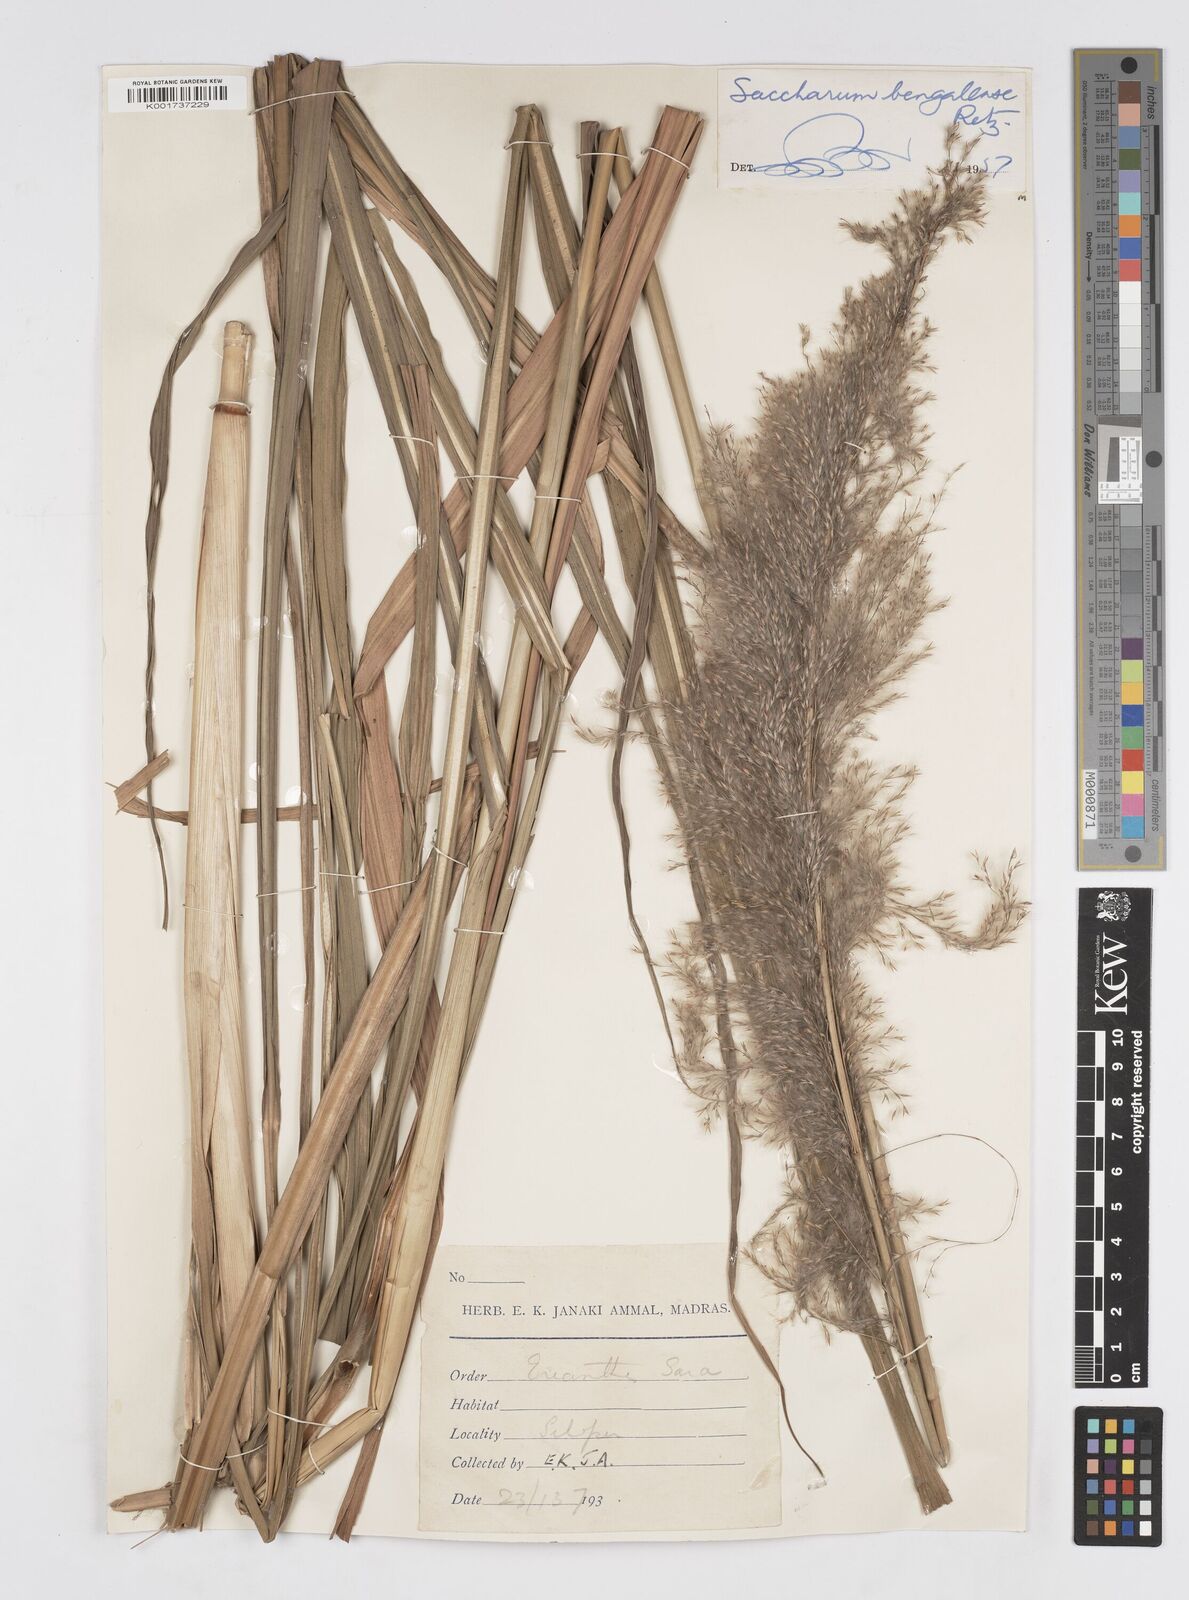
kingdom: Plantae
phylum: Tracheophyta
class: Liliopsida
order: Poales
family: Poaceae
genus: Tripidium
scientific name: Tripidium bengalense
